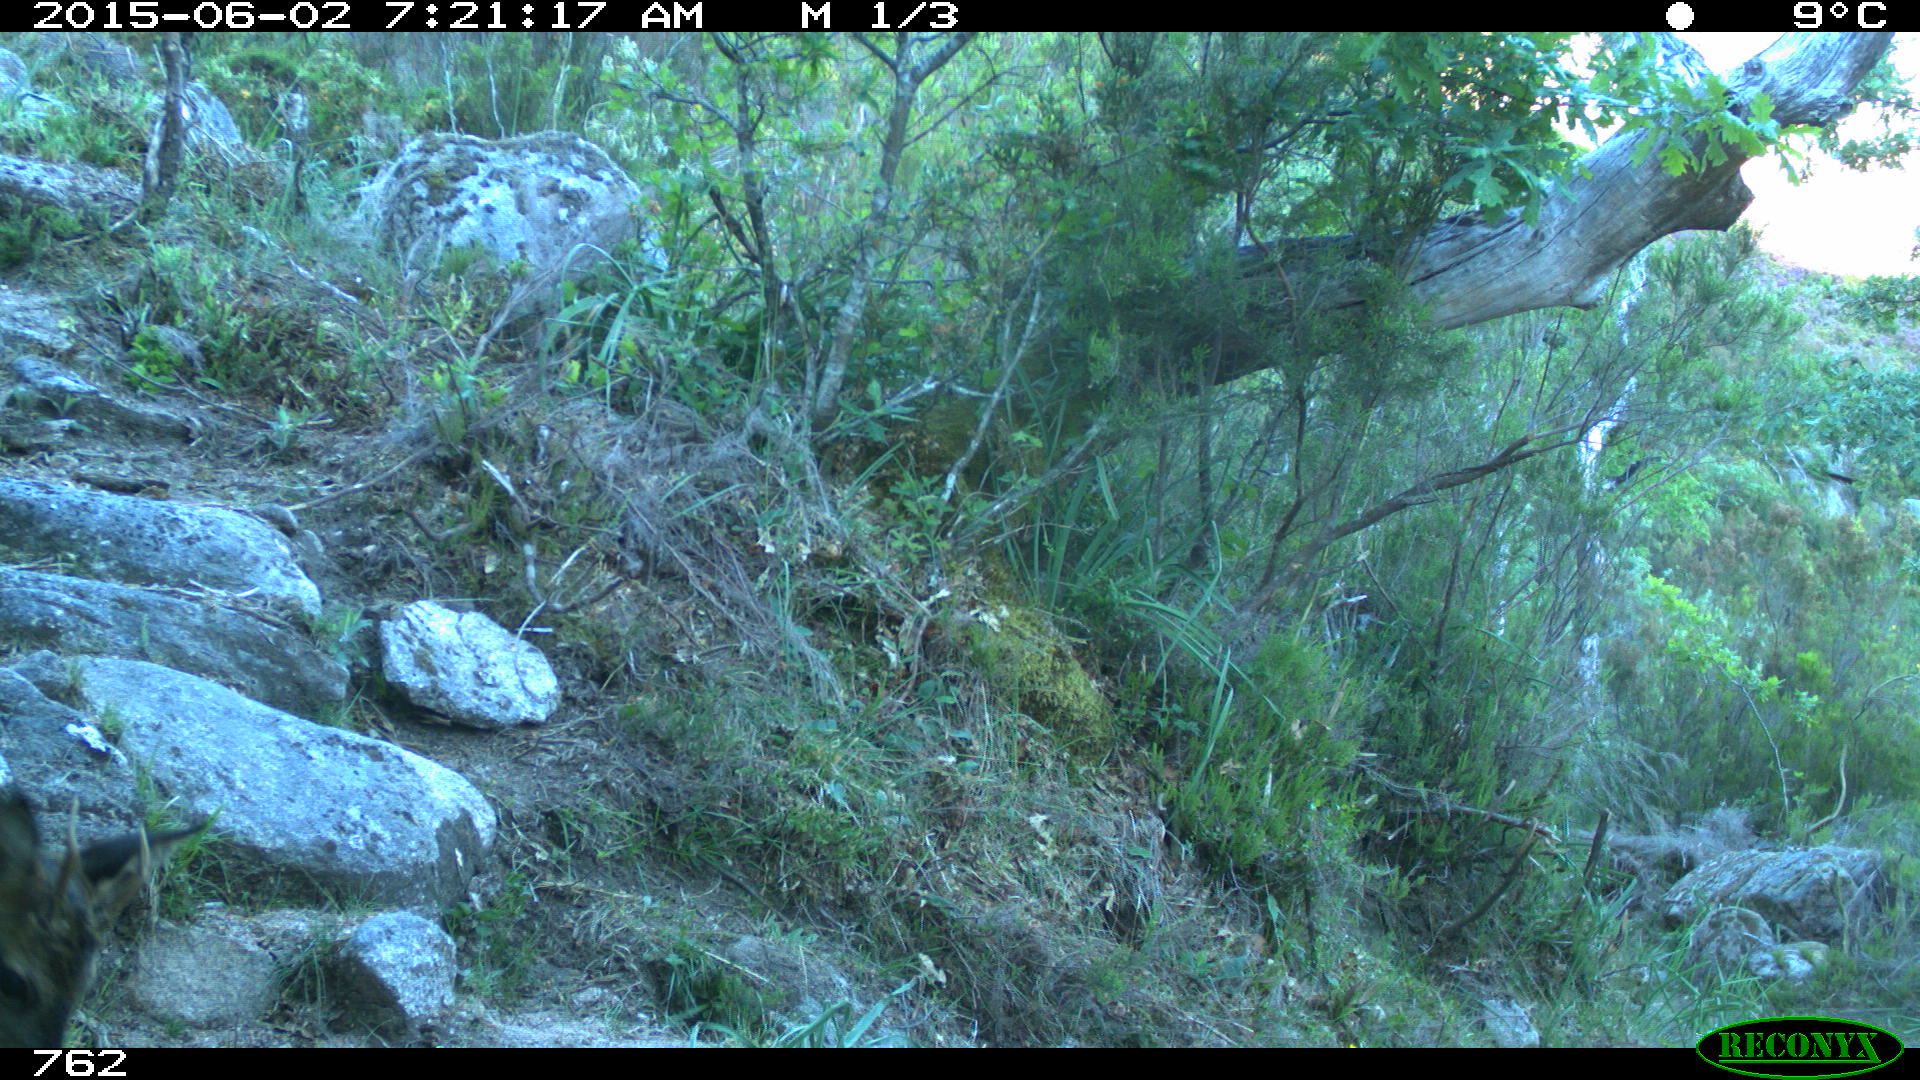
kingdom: Animalia
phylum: Chordata
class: Mammalia
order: Artiodactyla
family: Cervidae
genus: Capreolus
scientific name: Capreolus capreolus
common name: Western roe deer
